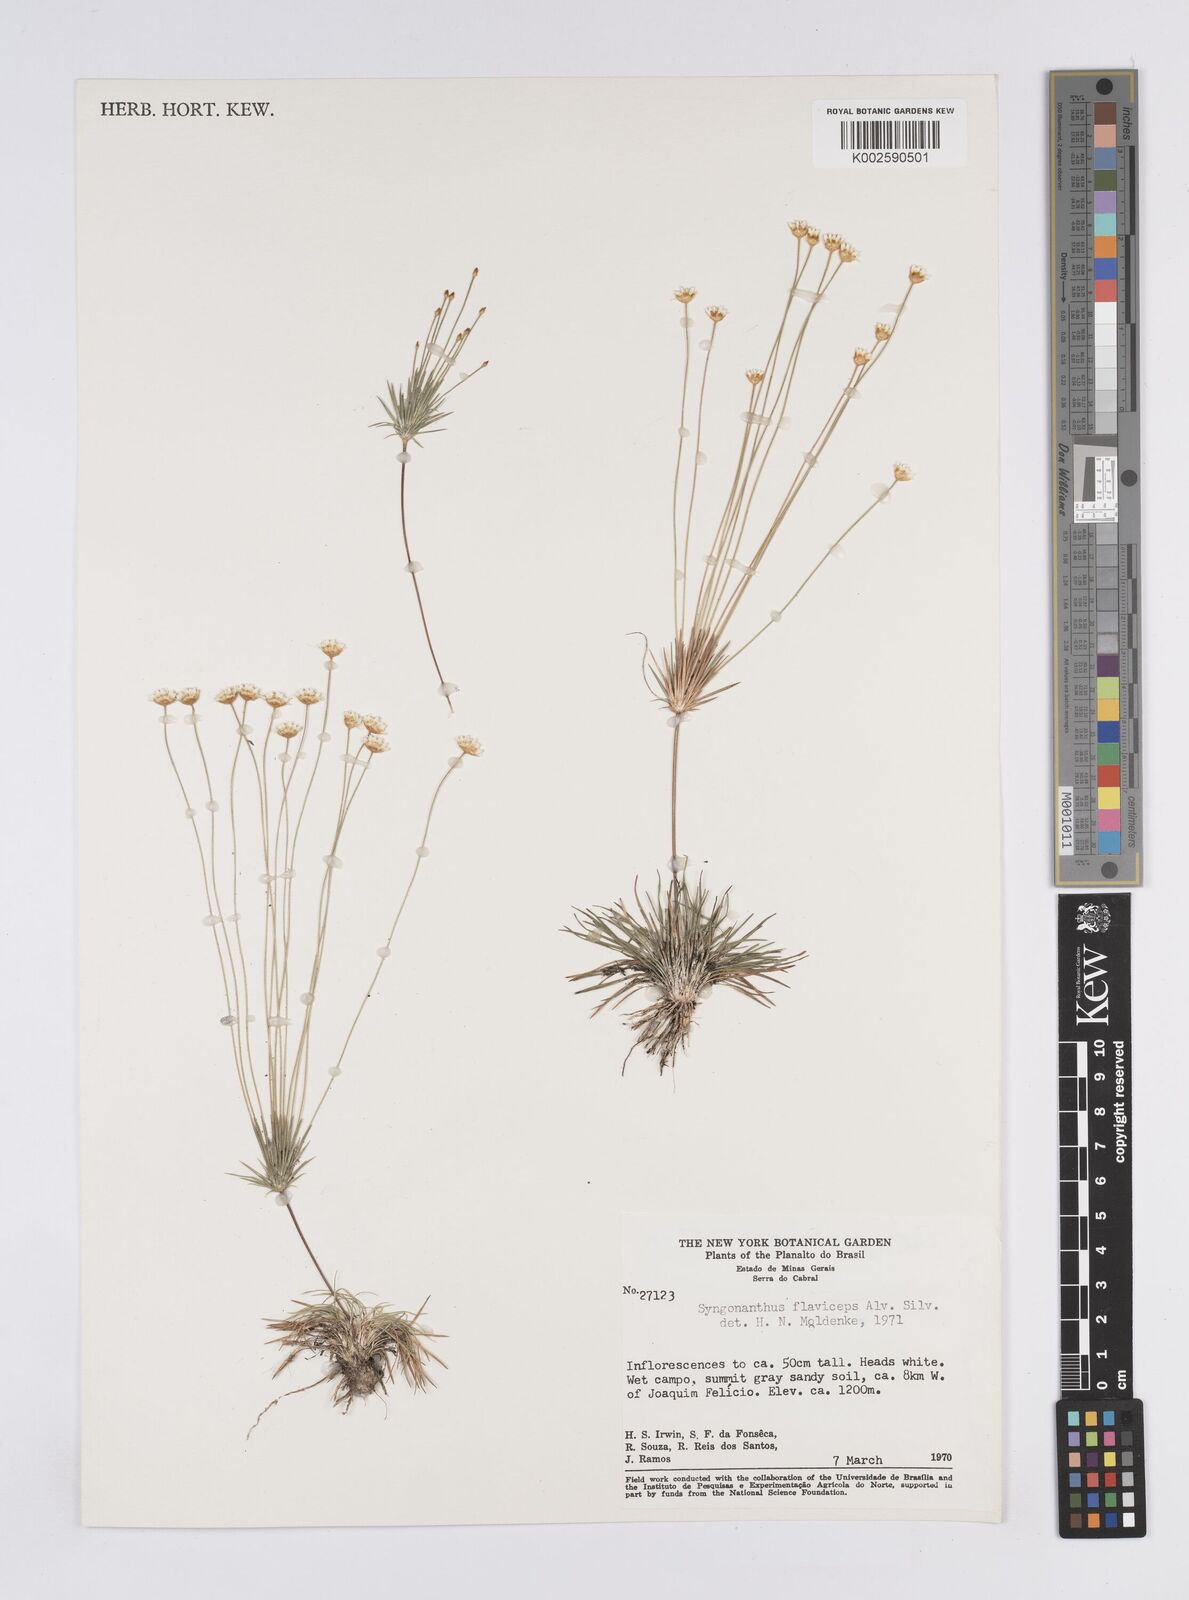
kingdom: Plantae
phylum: Tracheophyta
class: Liliopsida
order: Poales
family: Eriocaulaceae
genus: Syngonanthus
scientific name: Syngonanthus flaviceps
